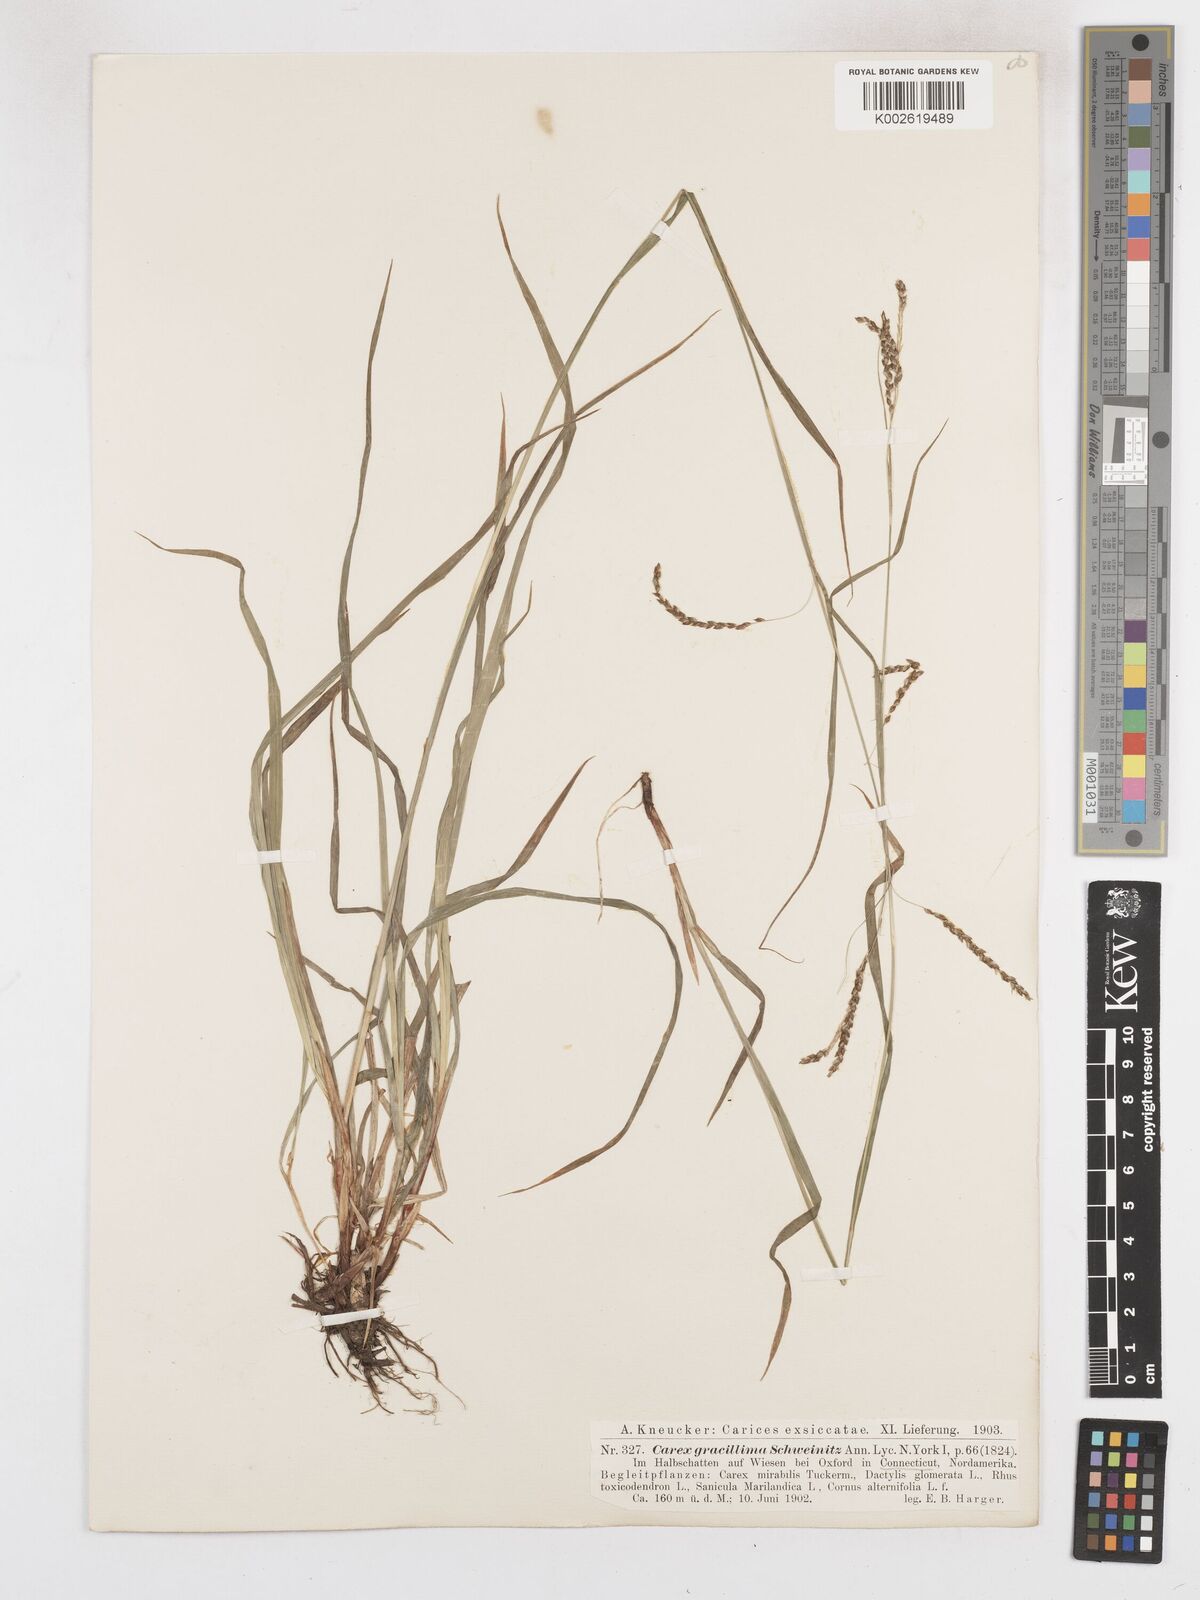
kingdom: Plantae
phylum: Tracheophyta
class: Liliopsida
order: Poales
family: Cyperaceae
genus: Carex
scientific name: Carex gracillima
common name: Graceful sedge
